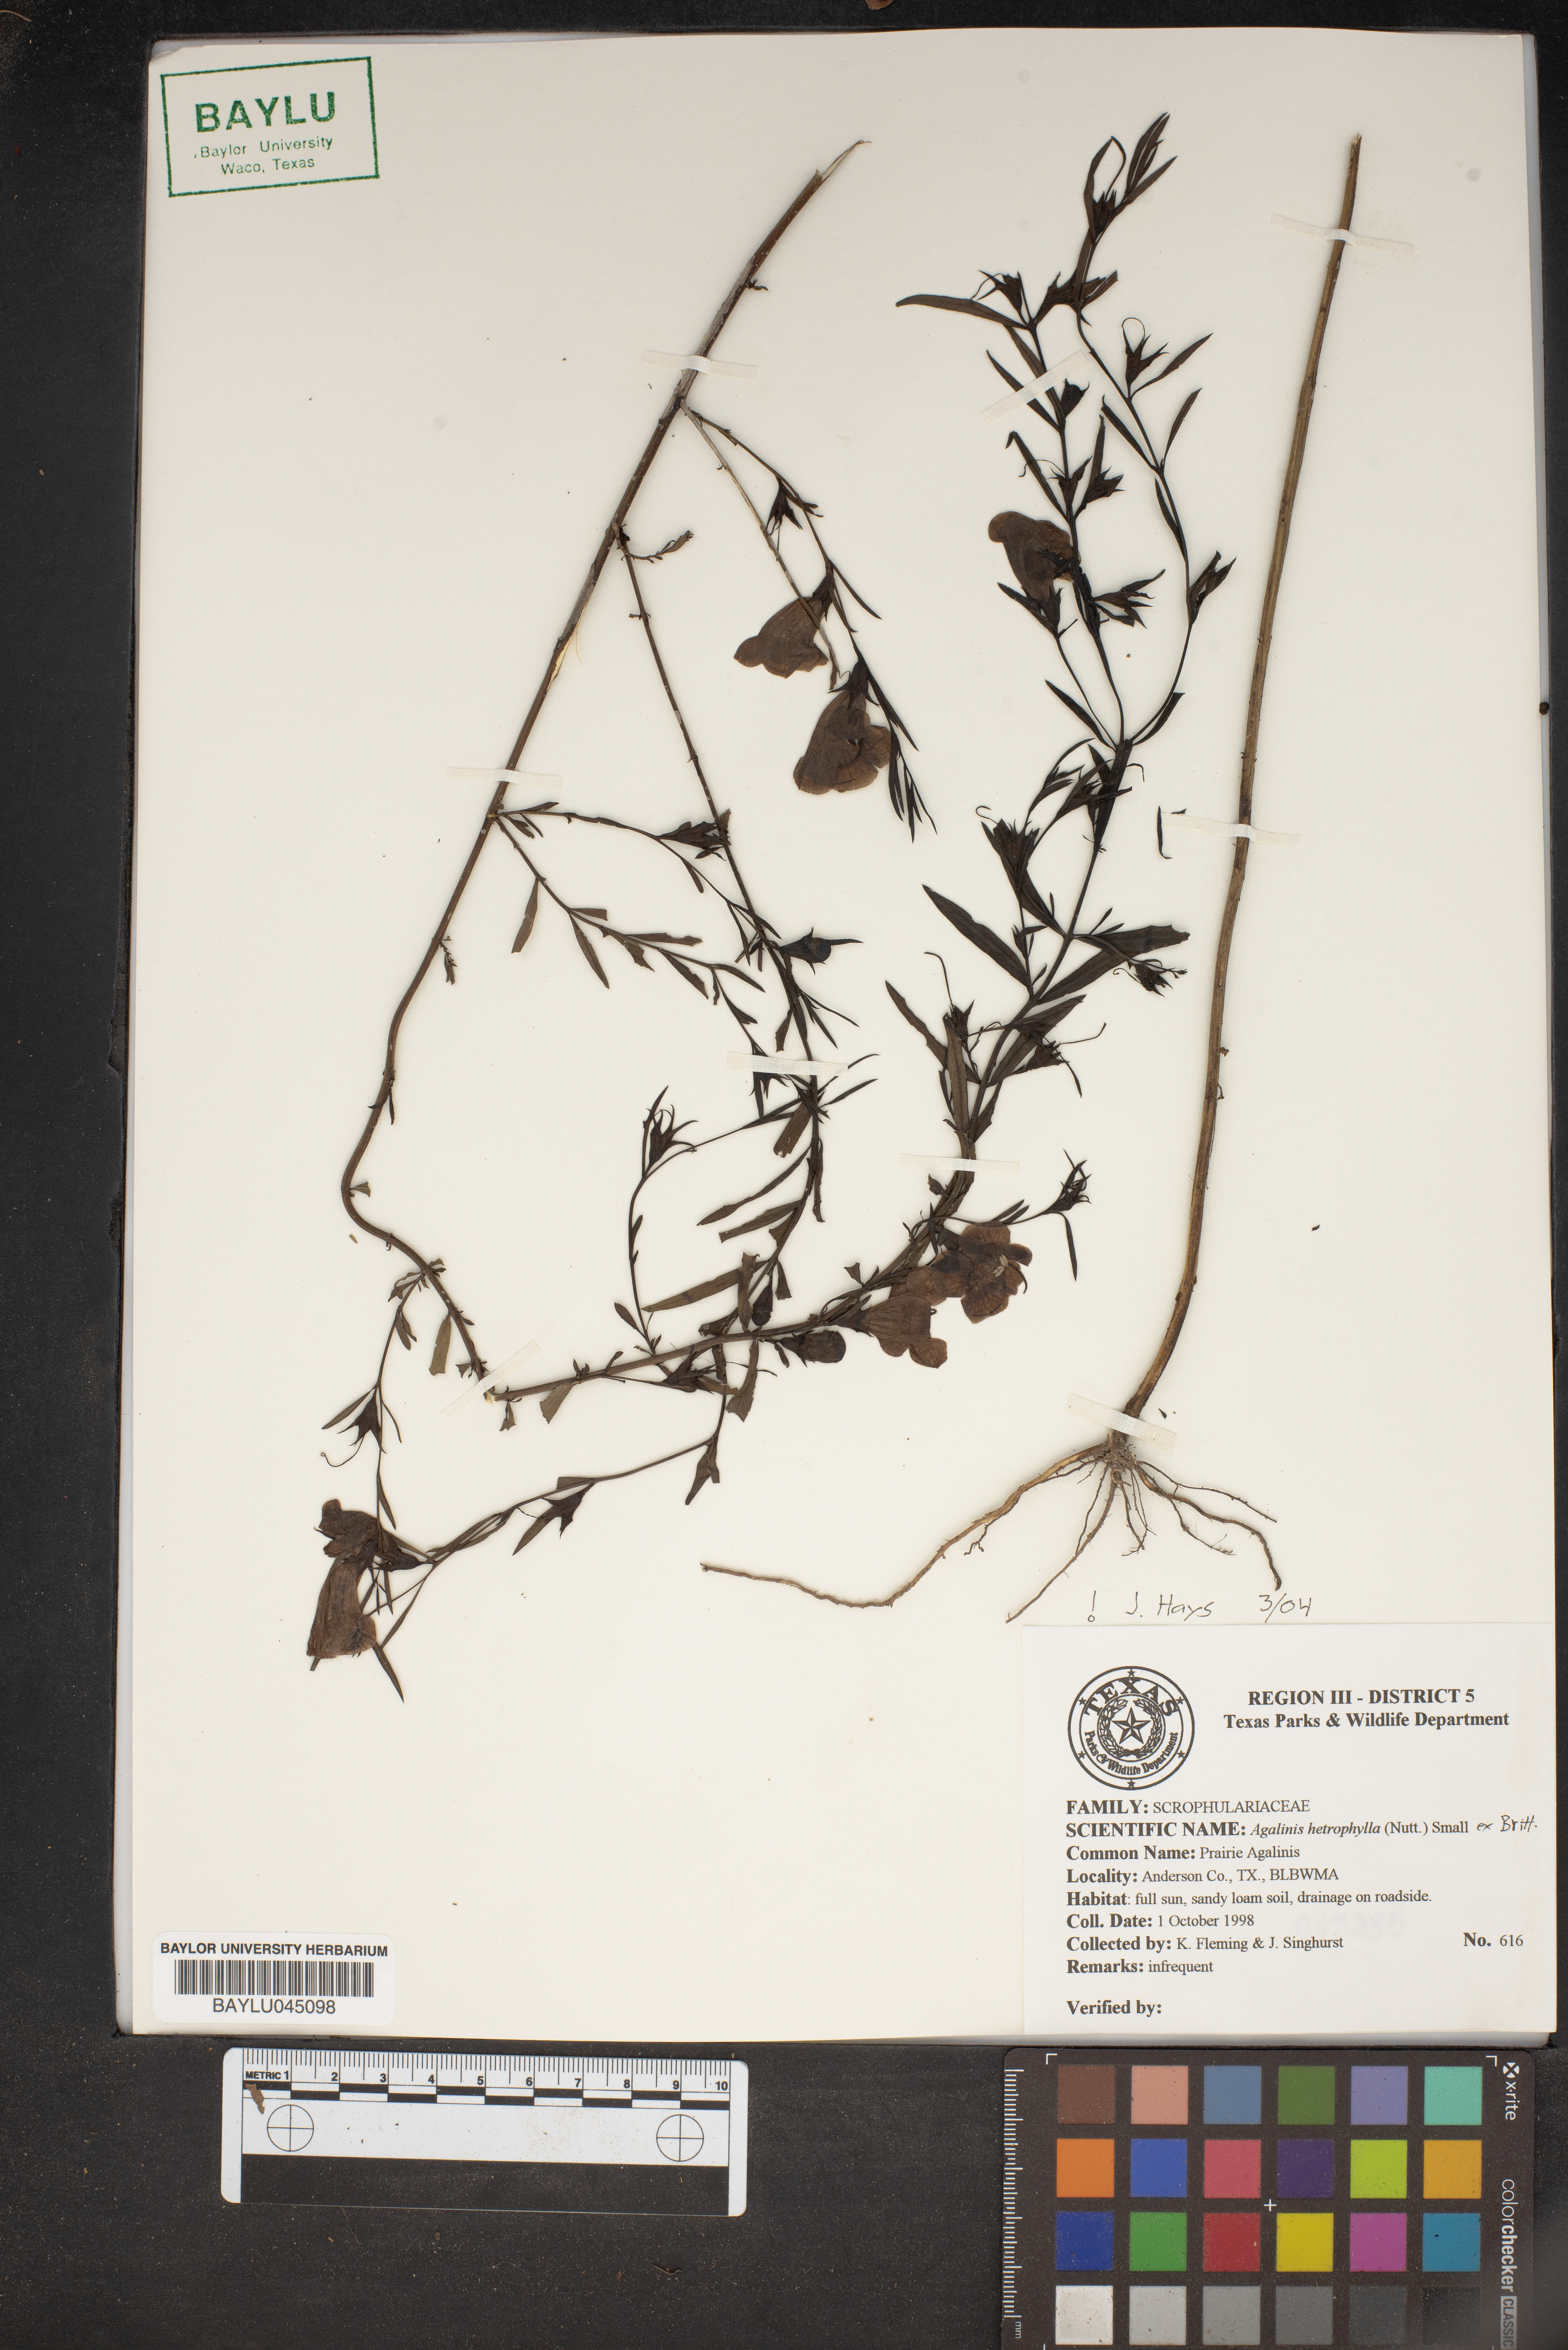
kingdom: Plantae
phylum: Tracheophyta
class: Magnoliopsida
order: Lamiales
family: Orobanchaceae
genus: Agalinis
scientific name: Agalinis heterophylla
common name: Prairie agalinis
